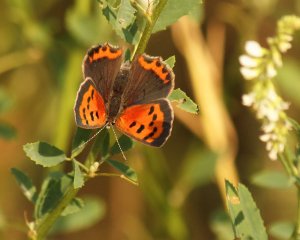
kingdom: Animalia
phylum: Arthropoda
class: Insecta
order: Lepidoptera
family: Lycaenidae
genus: Lycaena
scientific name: Lycaena phlaeas
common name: American Copper
